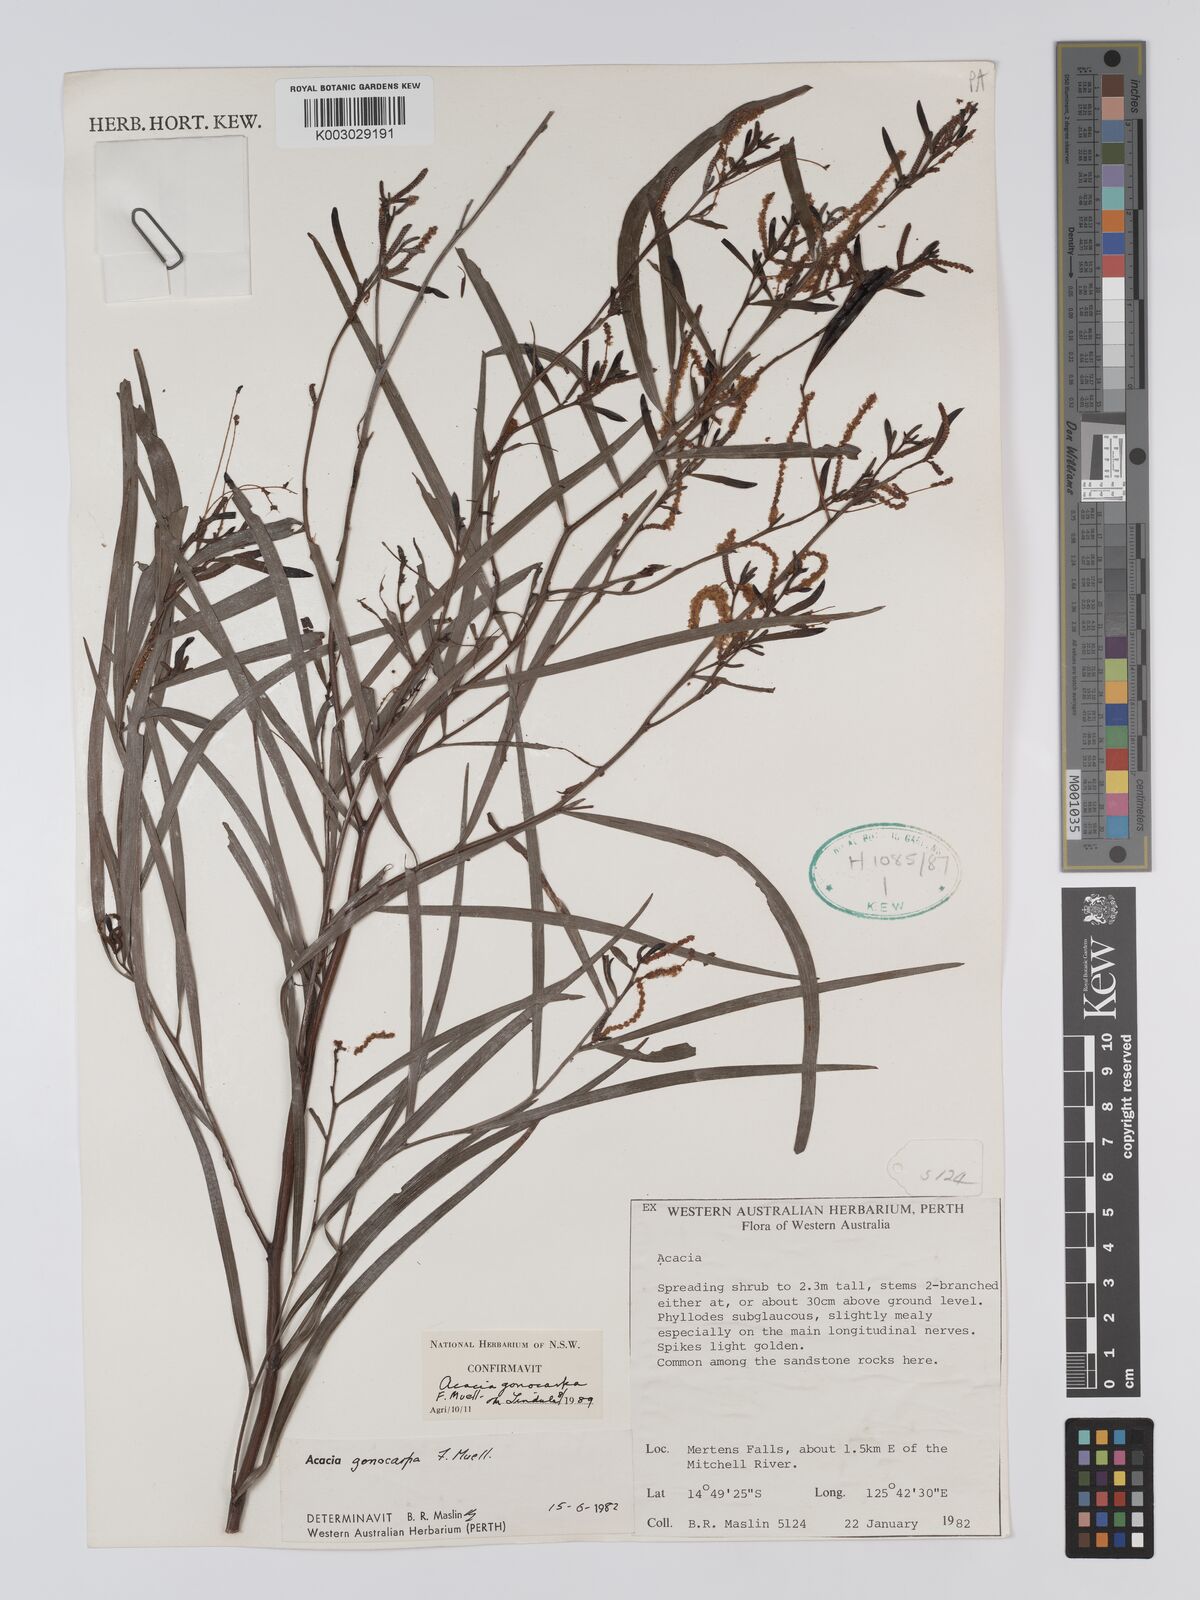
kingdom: Plantae
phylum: Tracheophyta
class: Magnoliopsida
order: Fabales
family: Fabaceae
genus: Acacia
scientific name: Acacia gonocarpa
